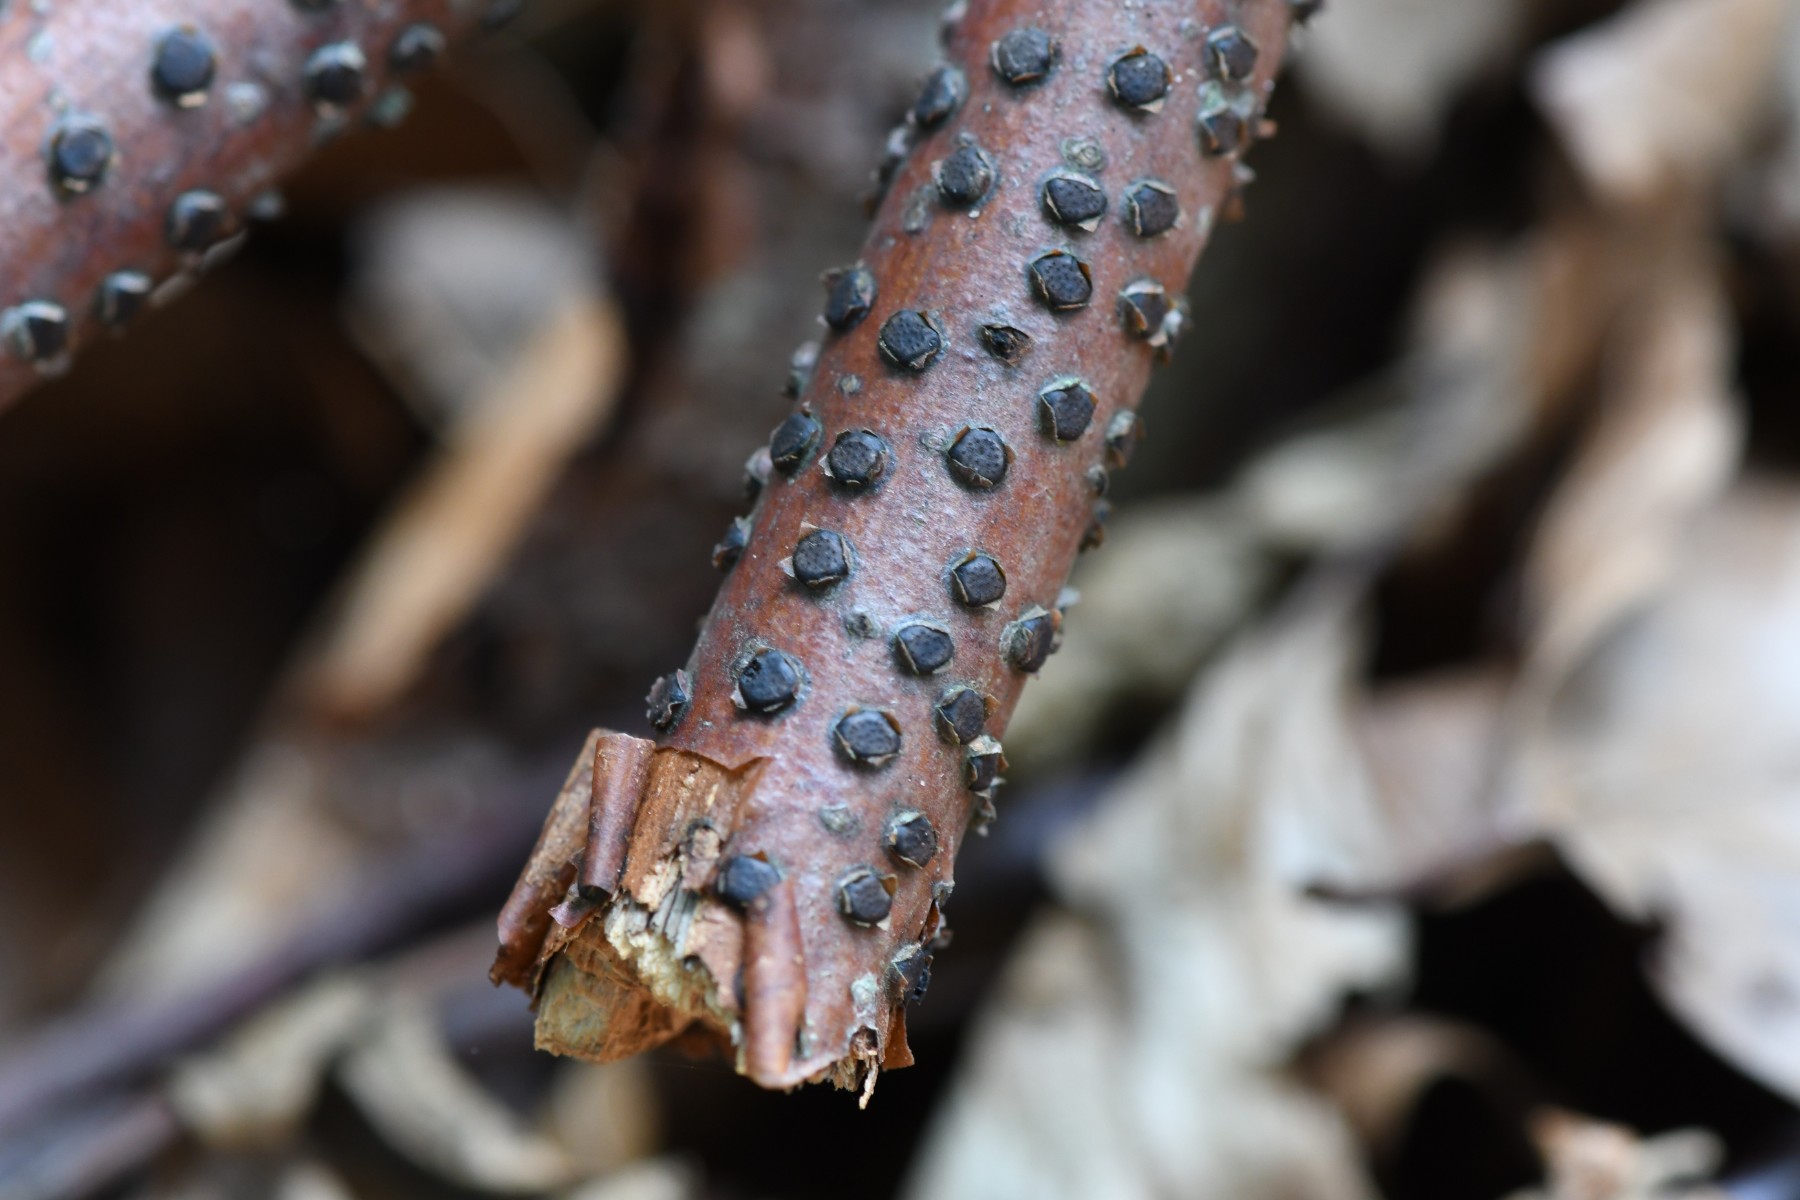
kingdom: Fungi
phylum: Ascomycota
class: Sordariomycetes
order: Xylariales
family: Diatrypaceae
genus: Diatrype
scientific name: Diatrype disciformis
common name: kant-kulskorpe
